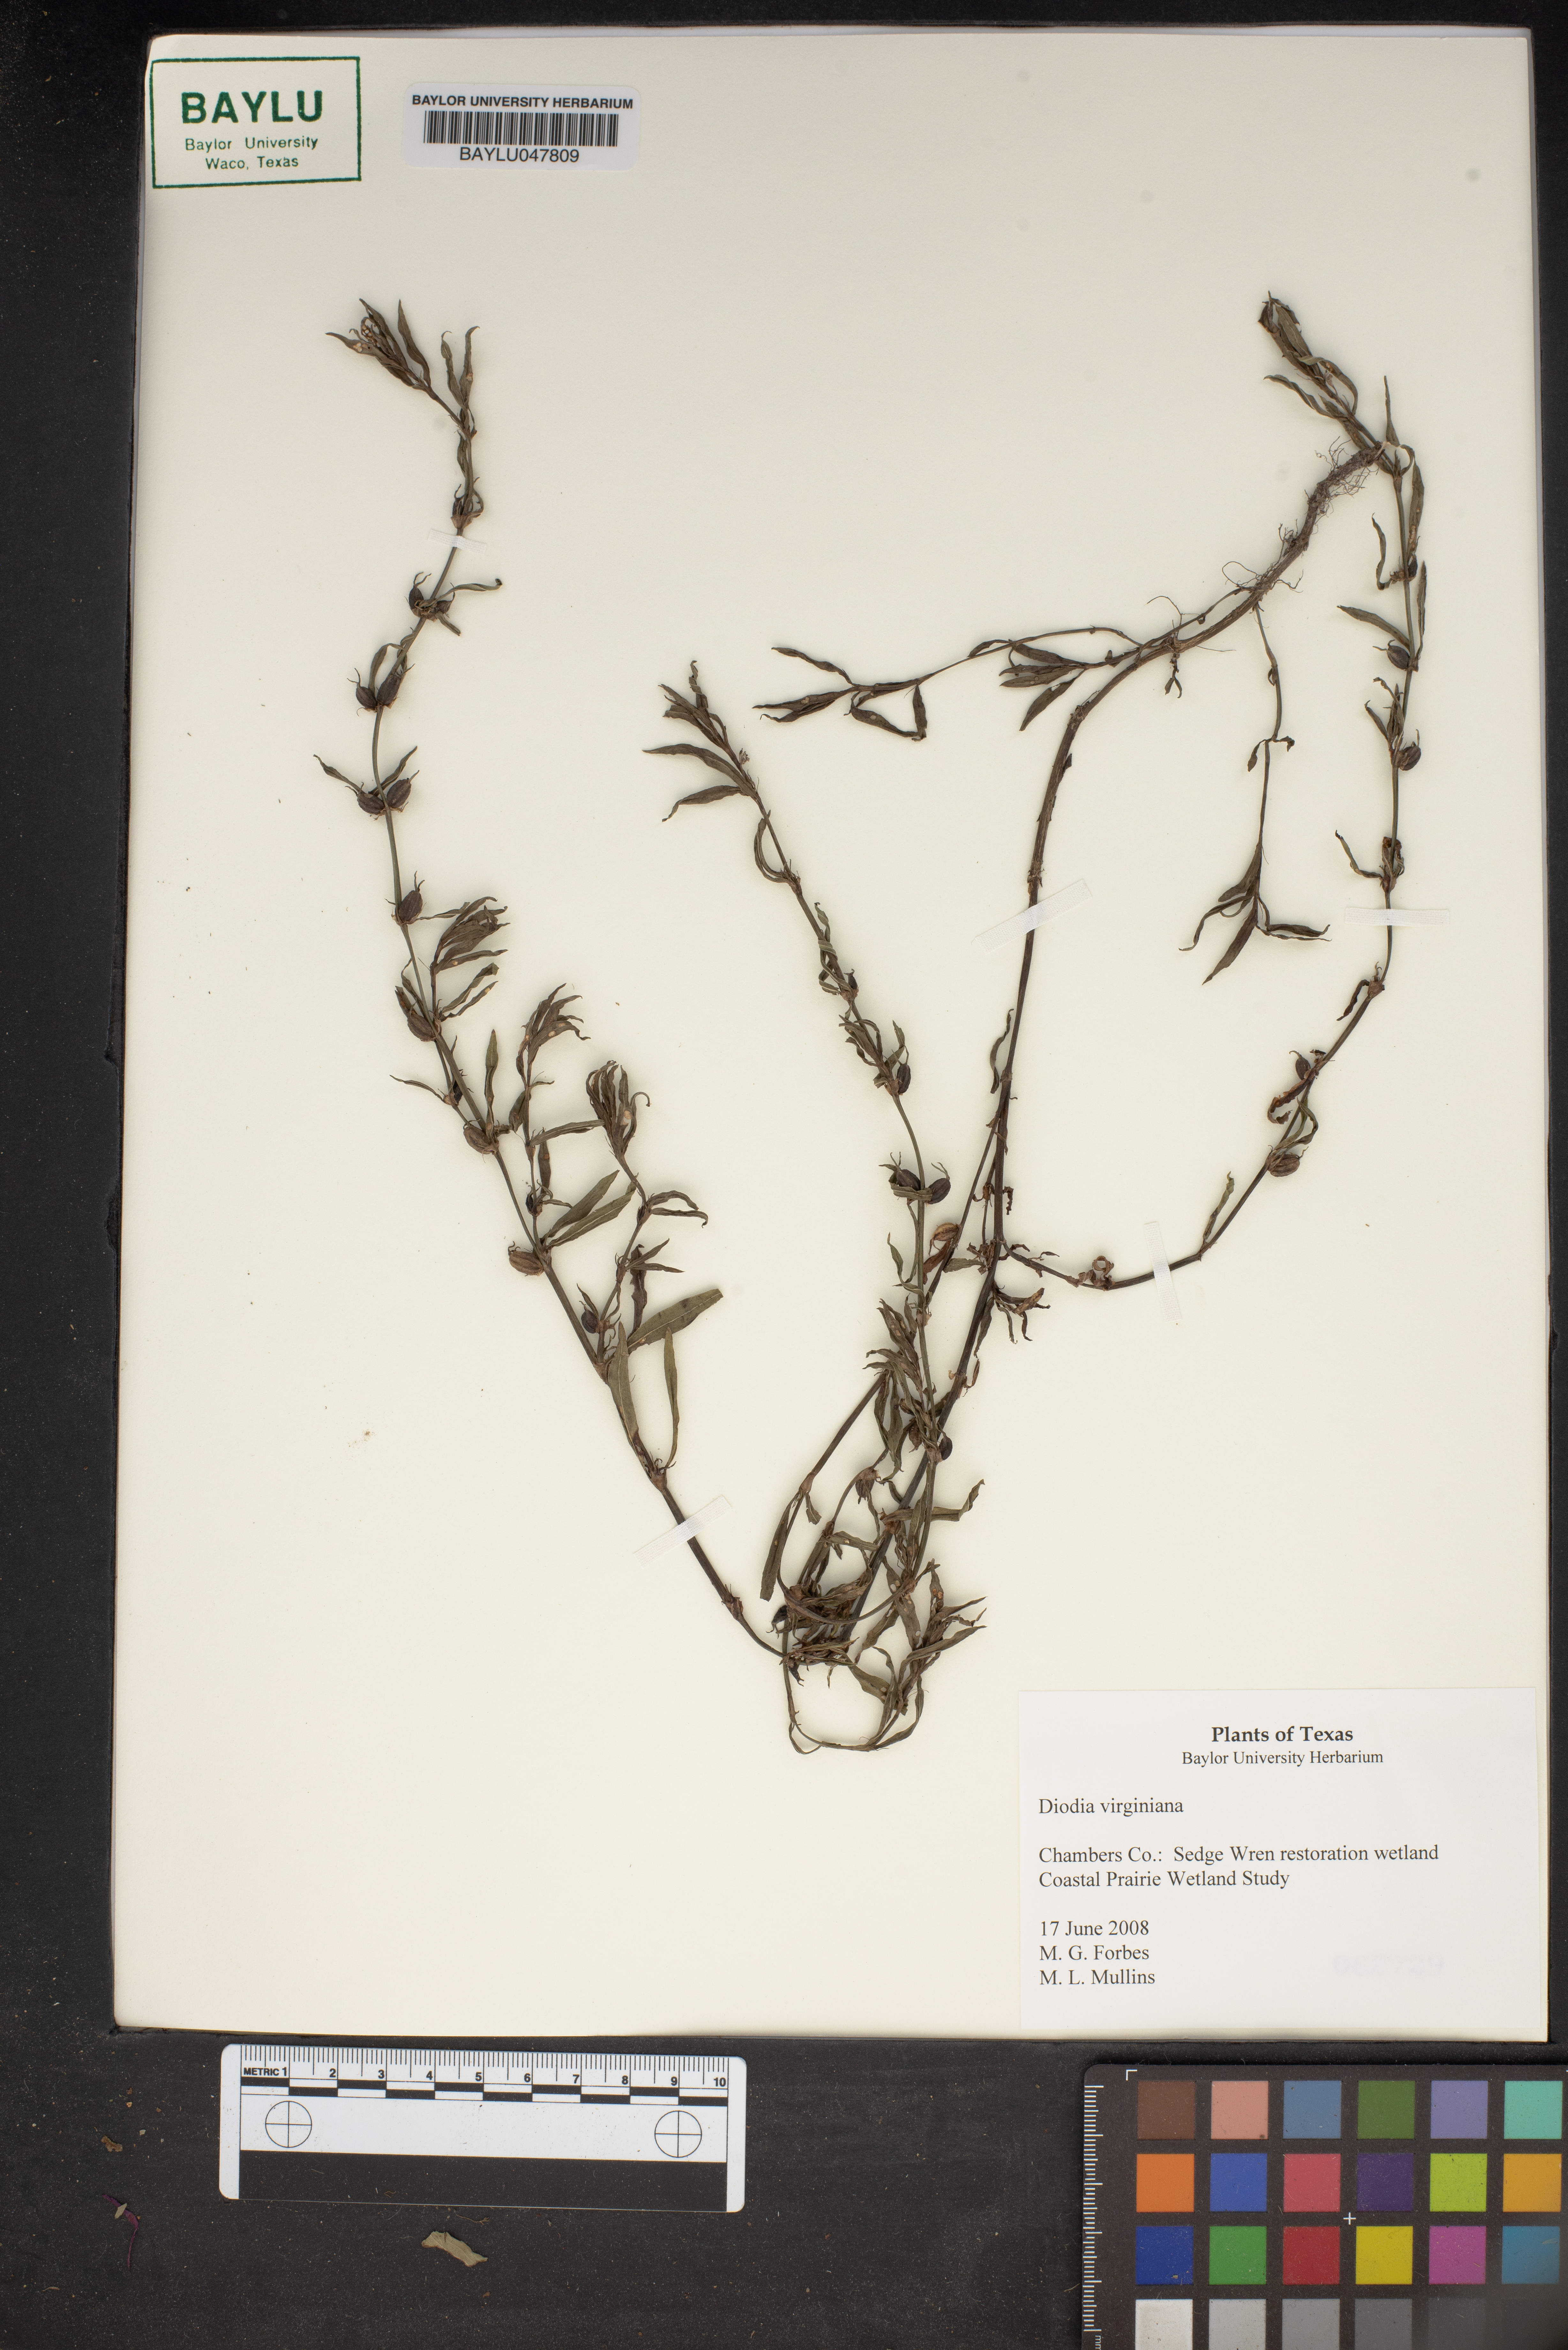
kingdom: Plantae
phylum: Tracheophyta
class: Magnoliopsida
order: Gentianales
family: Rubiaceae
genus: Diodia
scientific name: Diodia virginiana
